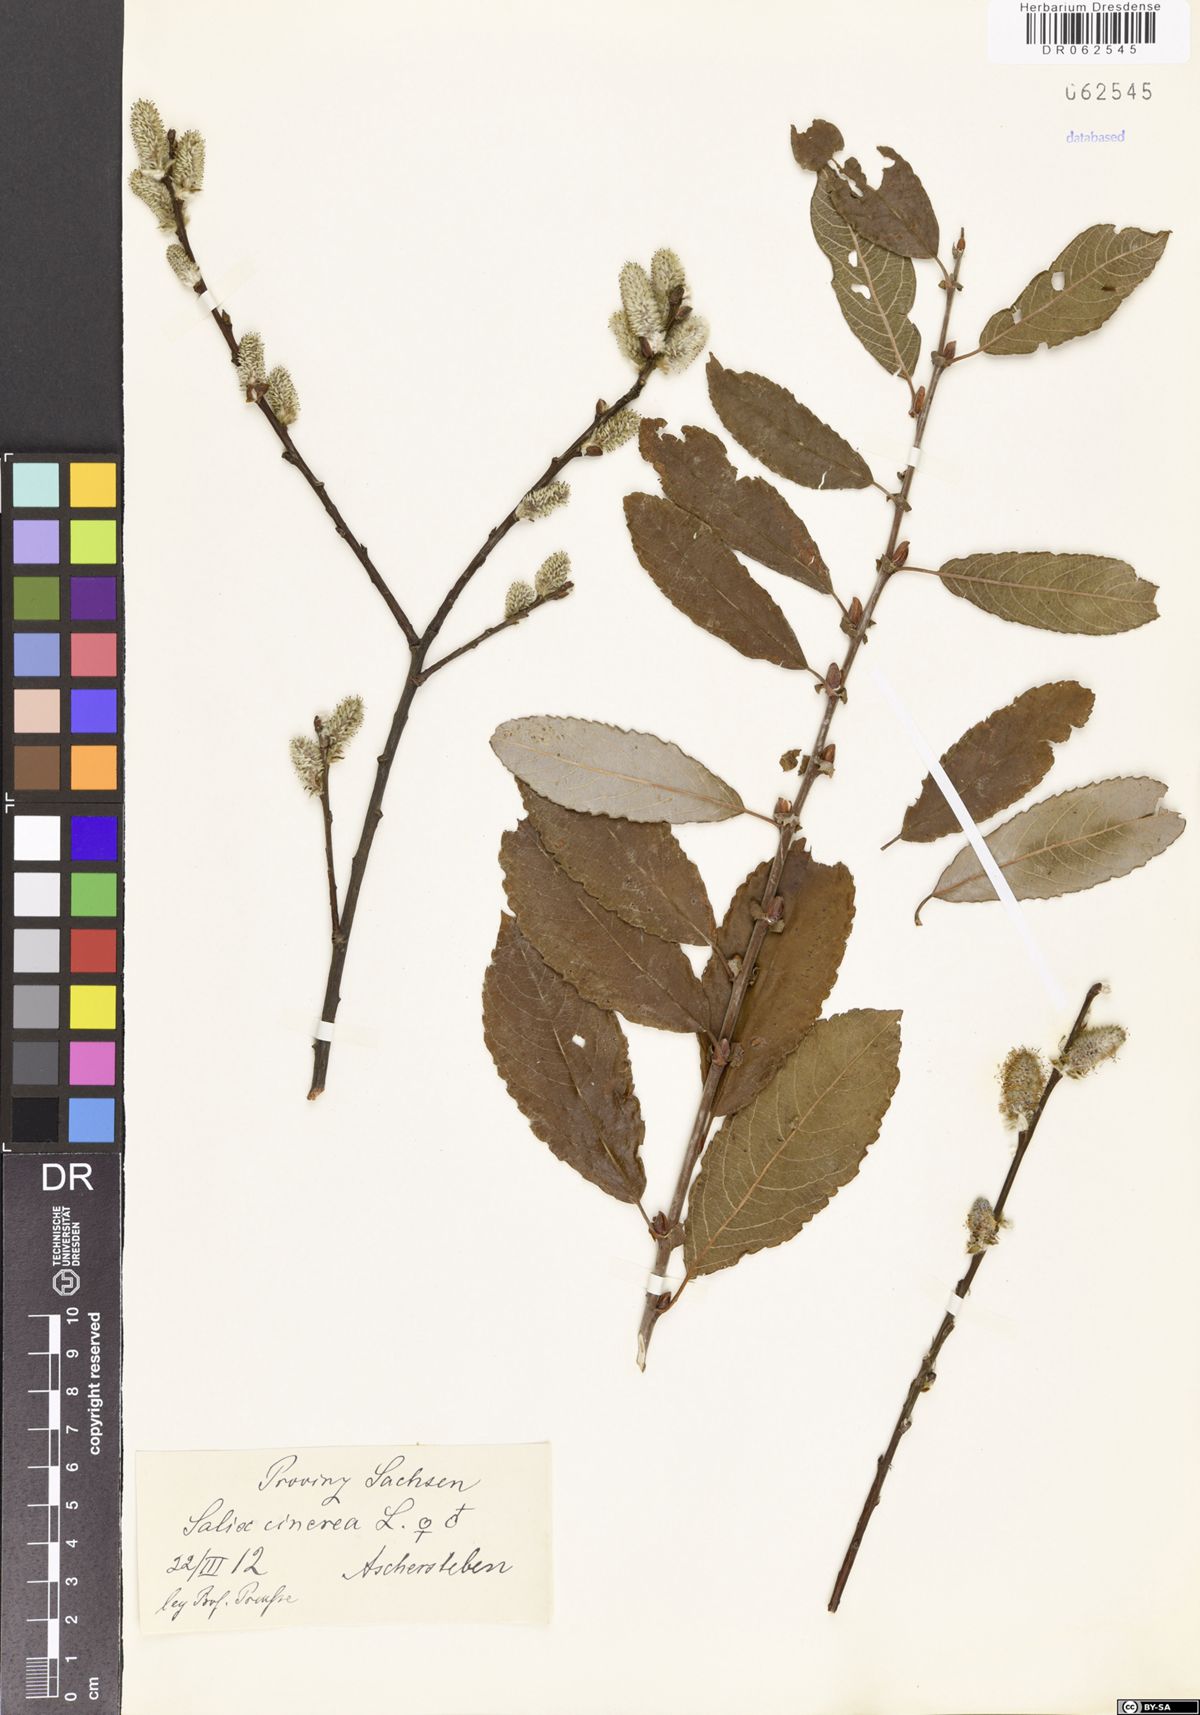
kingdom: Plantae
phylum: Tracheophyta
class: Magnoliopsida
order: Malpighiales
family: Salicaceae
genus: Salix
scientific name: Salix cinerea
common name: Common sallow
